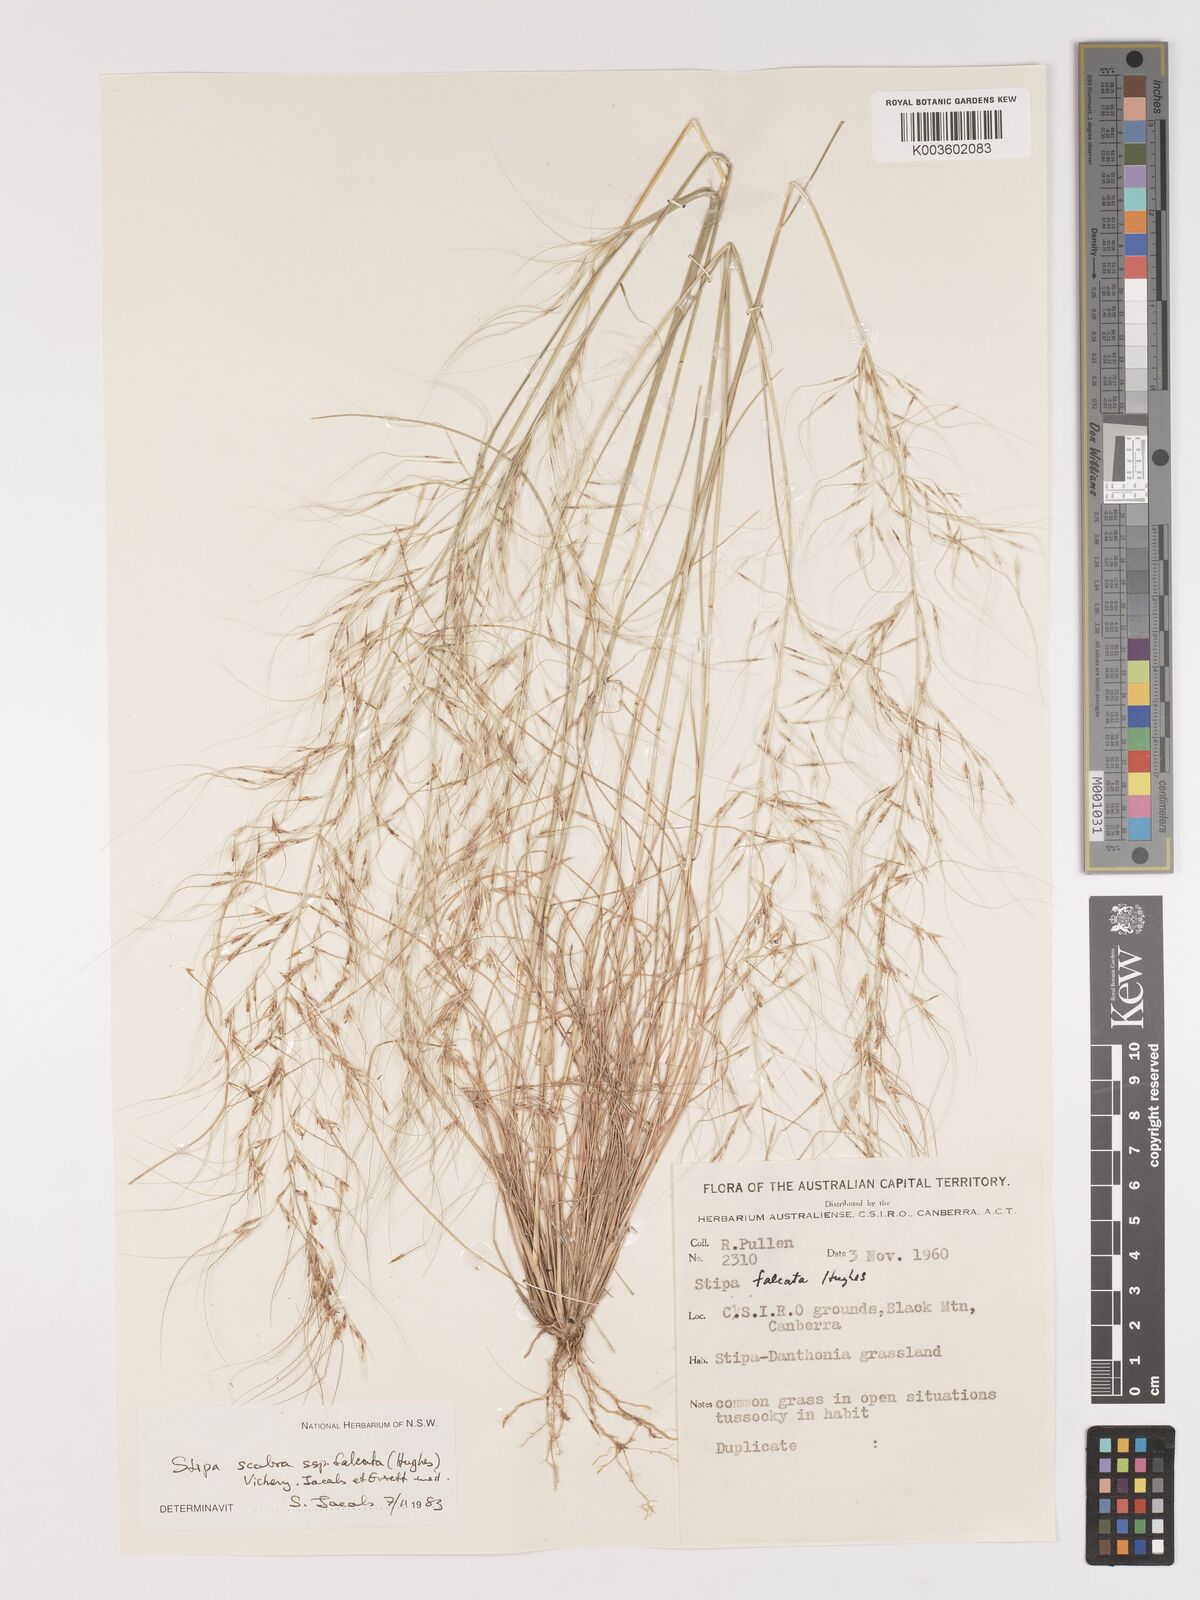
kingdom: Plantae
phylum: Tracheophyta
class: Liliopsida
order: Poales
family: Poaceae
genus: Austrostipa
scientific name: Austrostipa scabra
